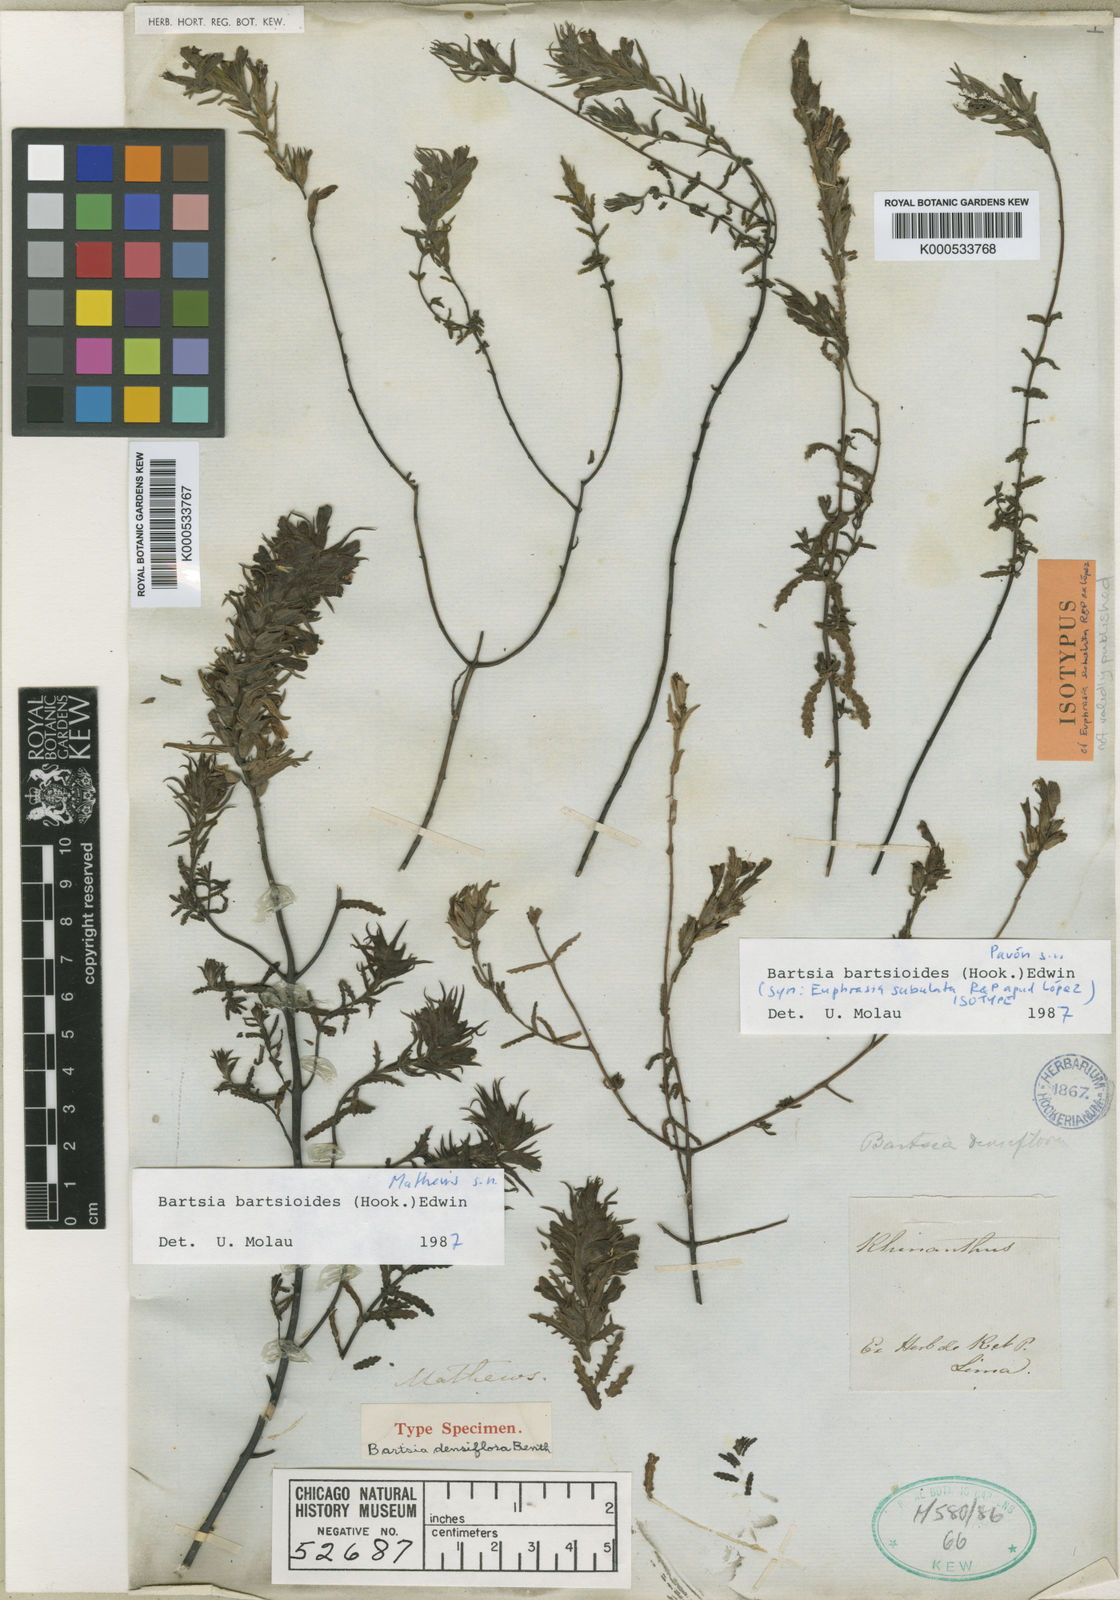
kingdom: Plantae
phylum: Tracheophyta
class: Magnoliopsida
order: Lamiales
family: Orobanchaceae
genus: Neobartsia
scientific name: Neobartsia bartsioides
